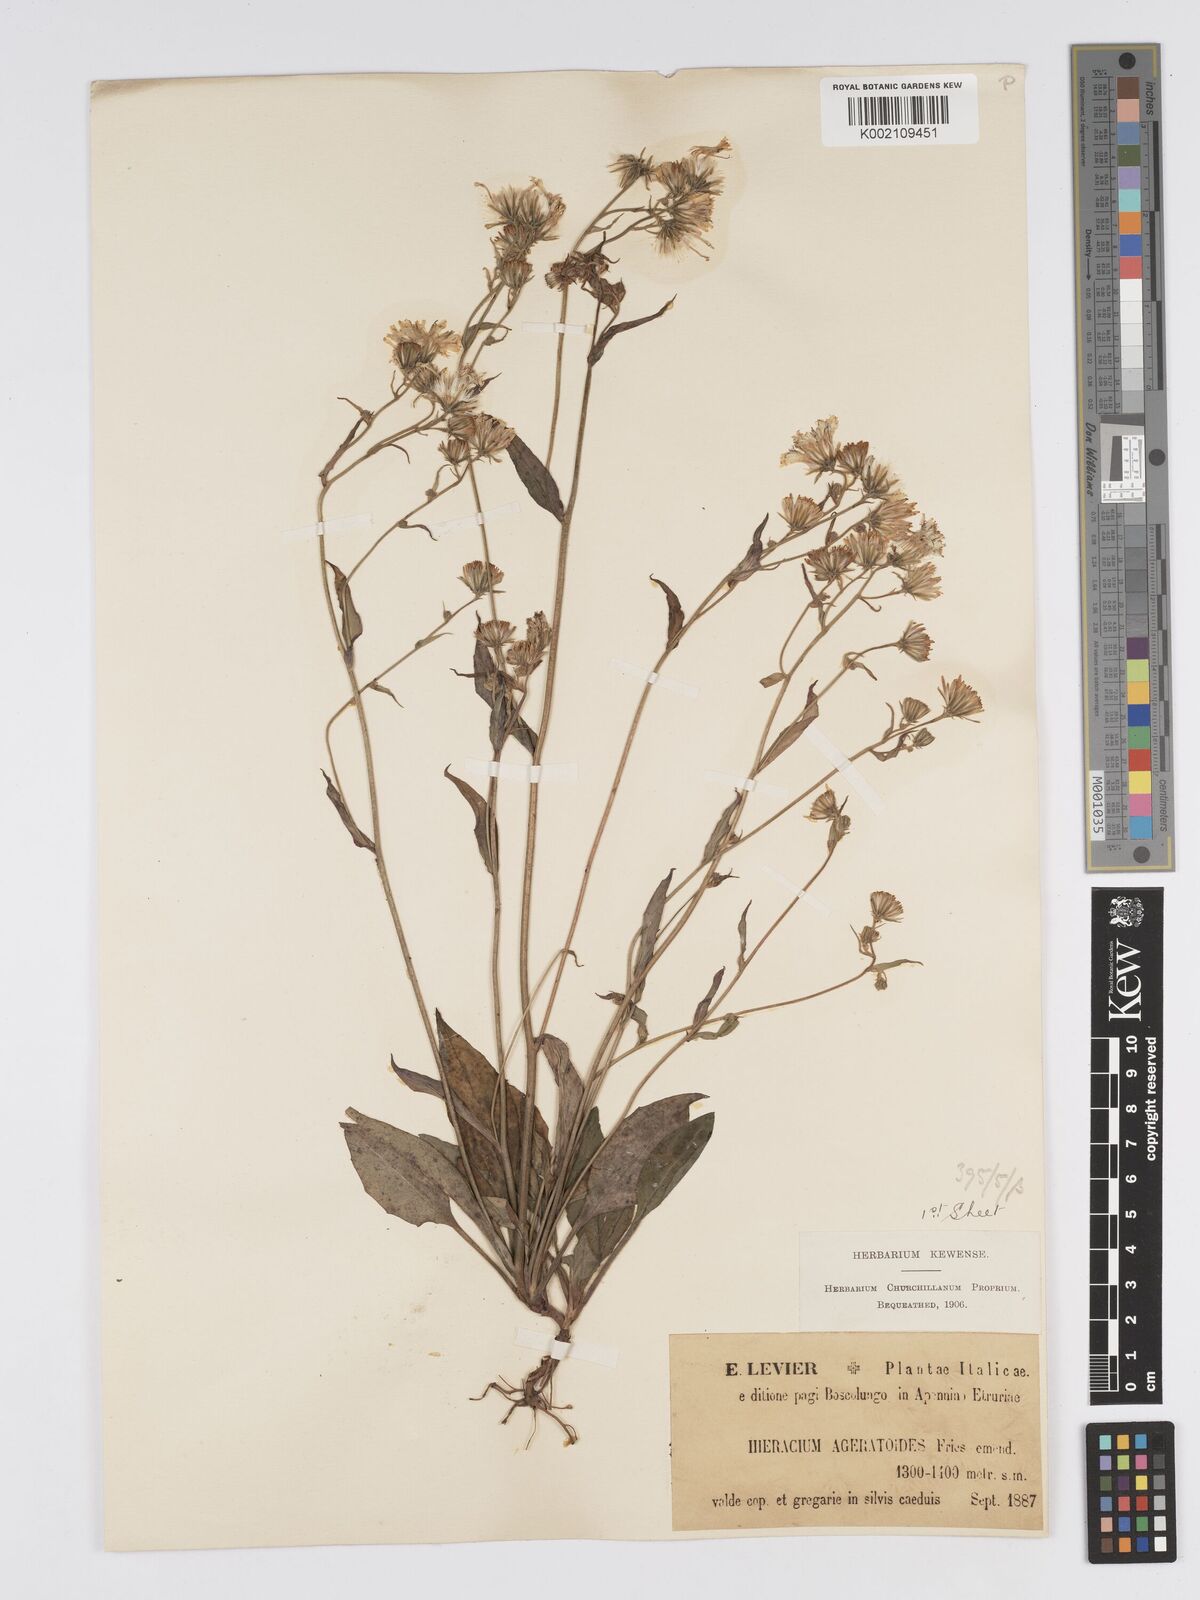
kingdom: Plantae
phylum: Tracheophyta
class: Magnoliopsida
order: Asterales
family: Asteraceae
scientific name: Asteraceae
